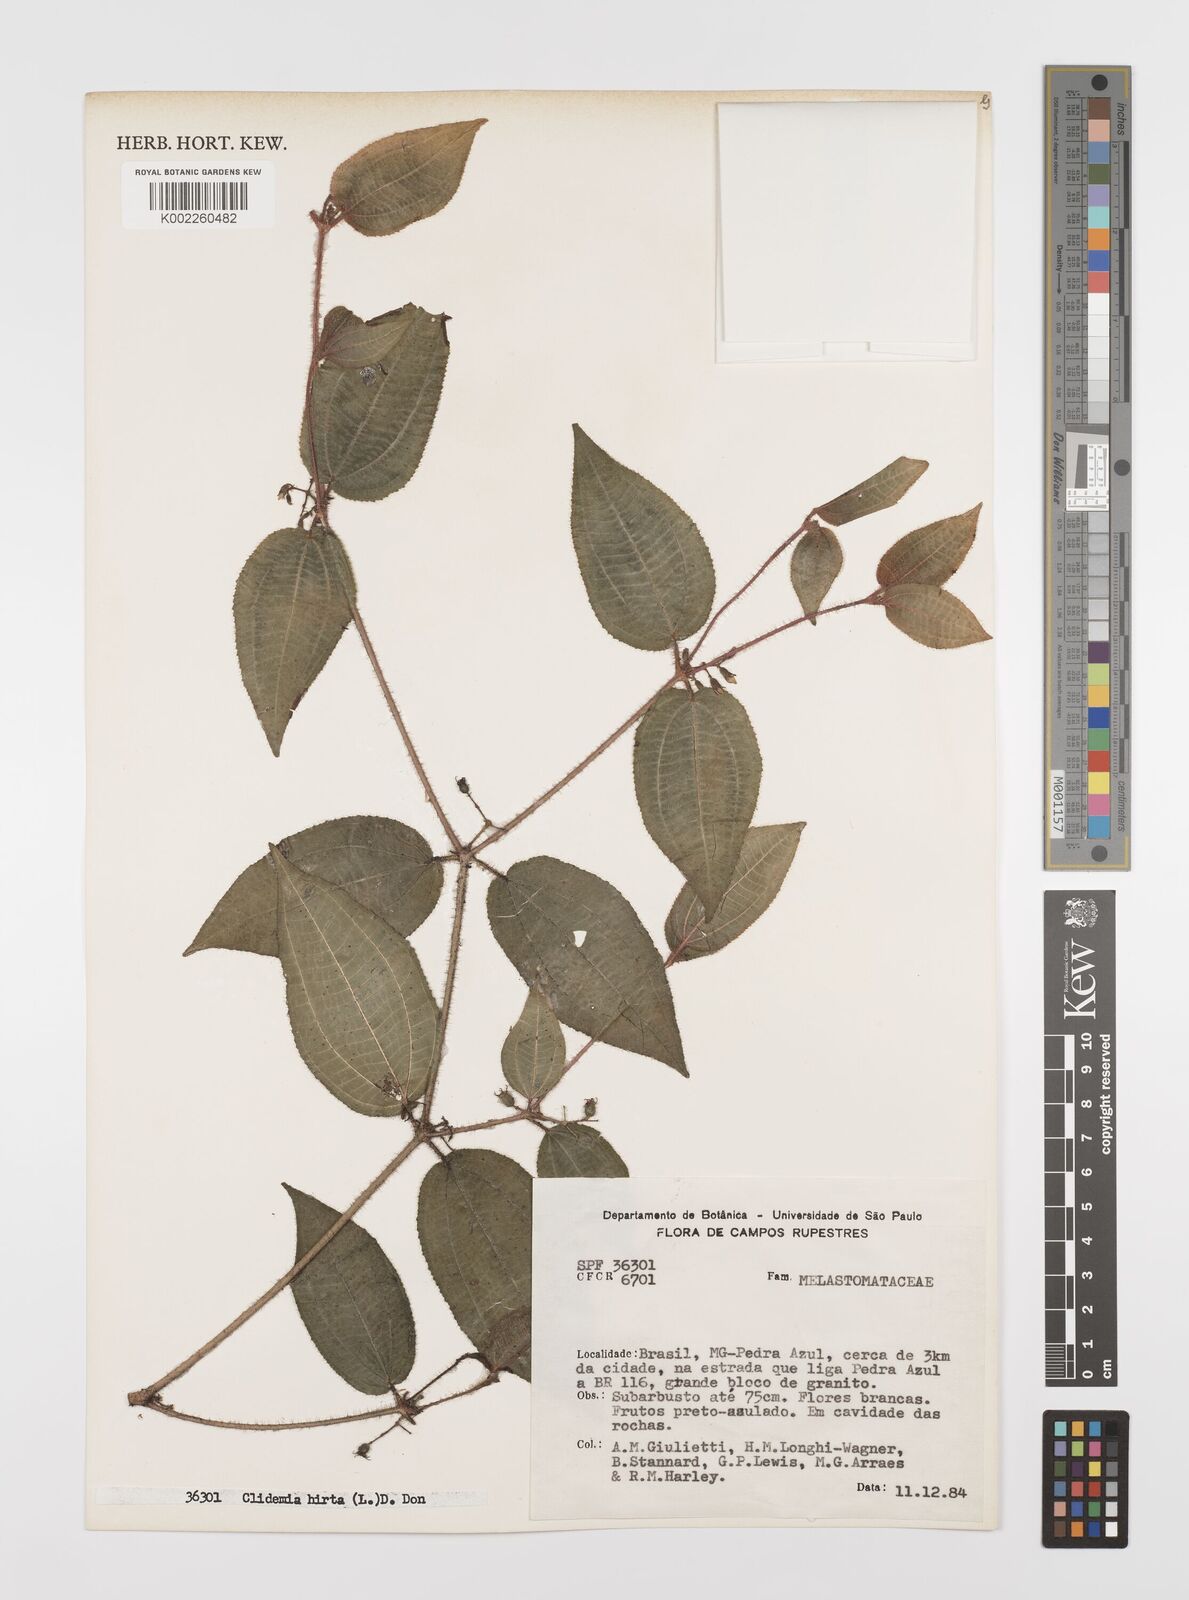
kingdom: Plantae
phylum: Tracheophyta
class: Magnoliopsida
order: Myrtales
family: Melastomataceae
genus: Miconia
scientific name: Miconia crenata
